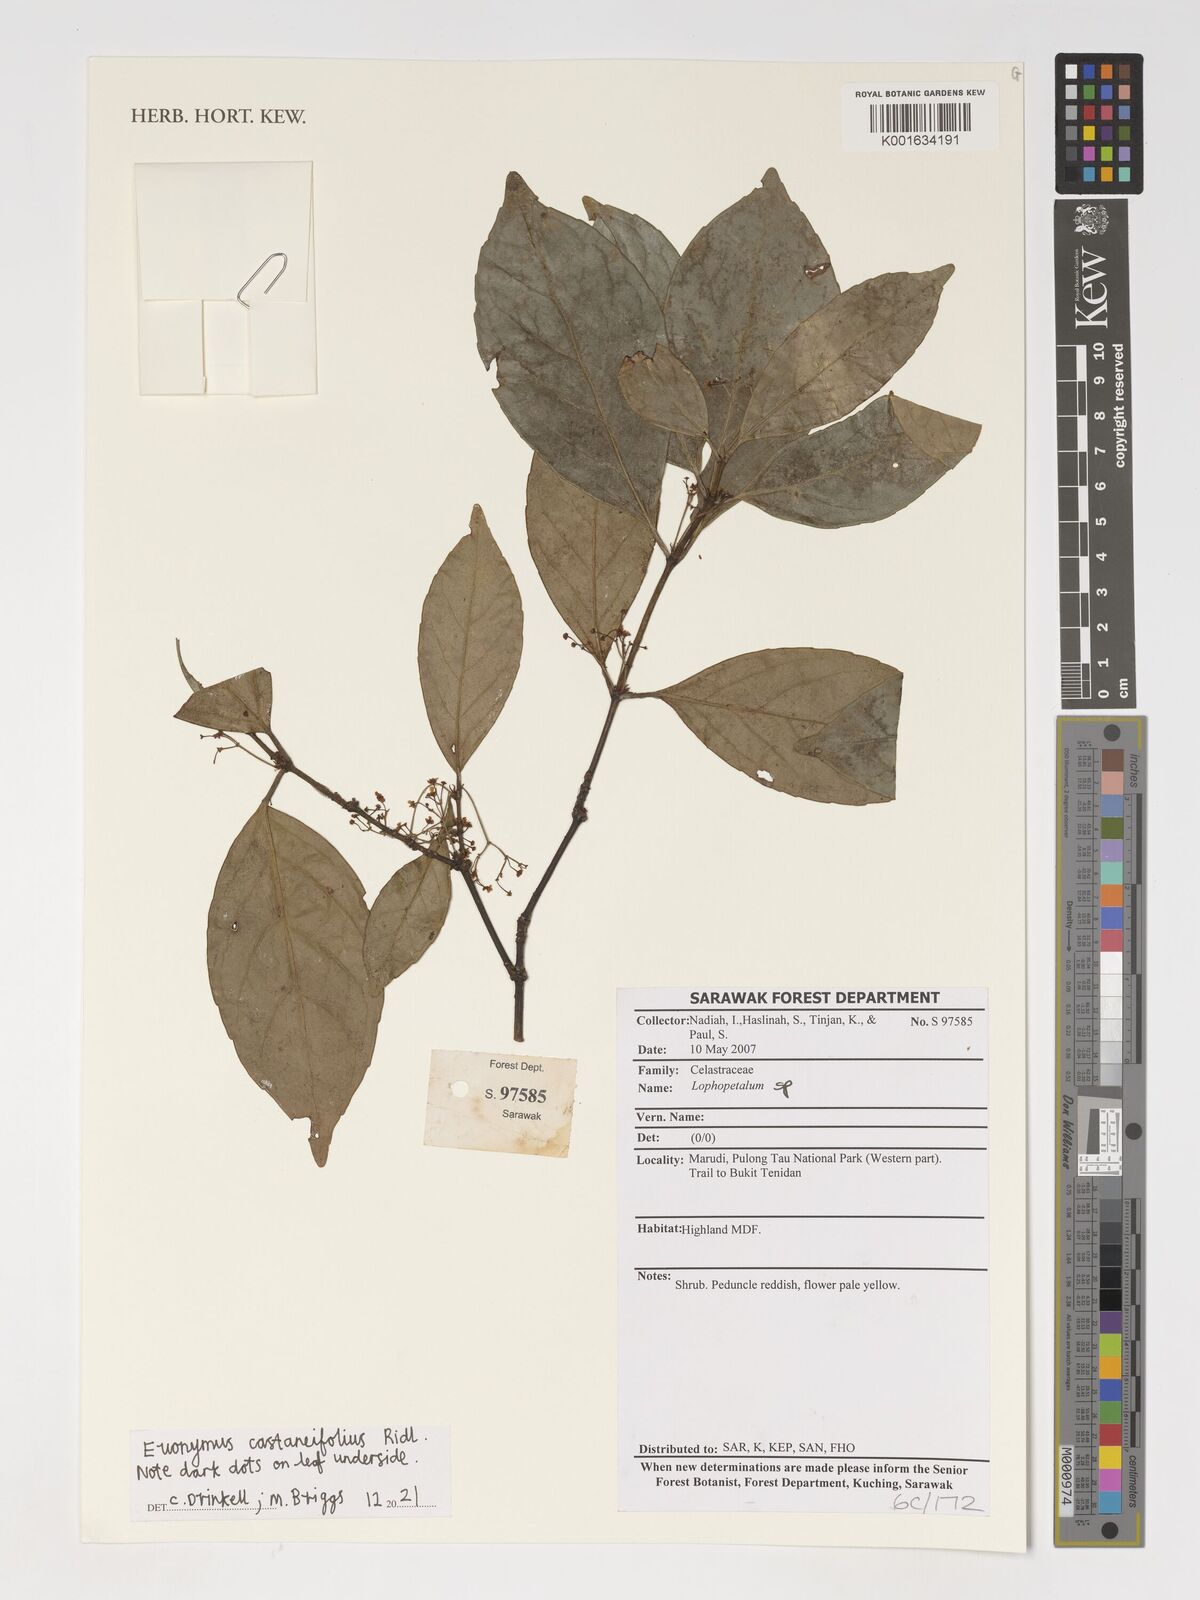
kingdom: Plantae
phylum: Tracheophyta
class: Magnoliopsida
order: Celastrales
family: Celastraceae
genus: Euonymus
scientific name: Euonymus castaneifolius
